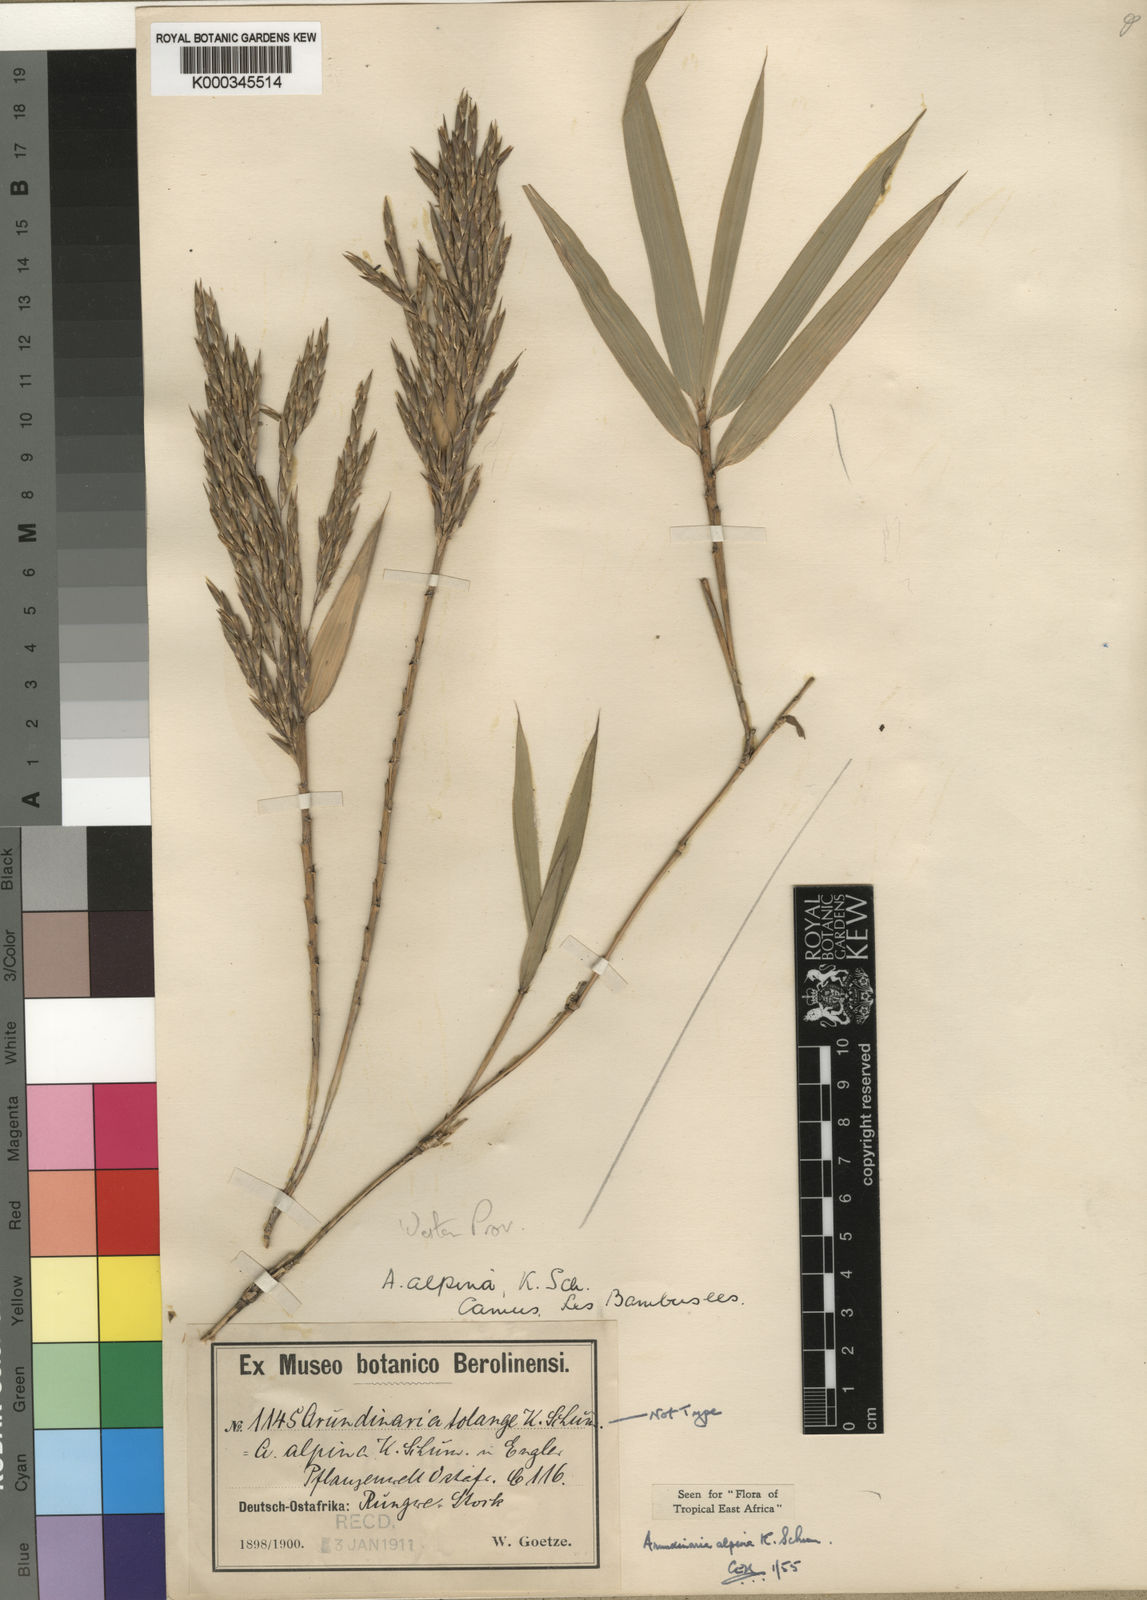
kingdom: Plantae
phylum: Tracheophyta
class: Liliopsida
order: Poales
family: Poaceae
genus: Oldeania
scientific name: Oldeania alpina
